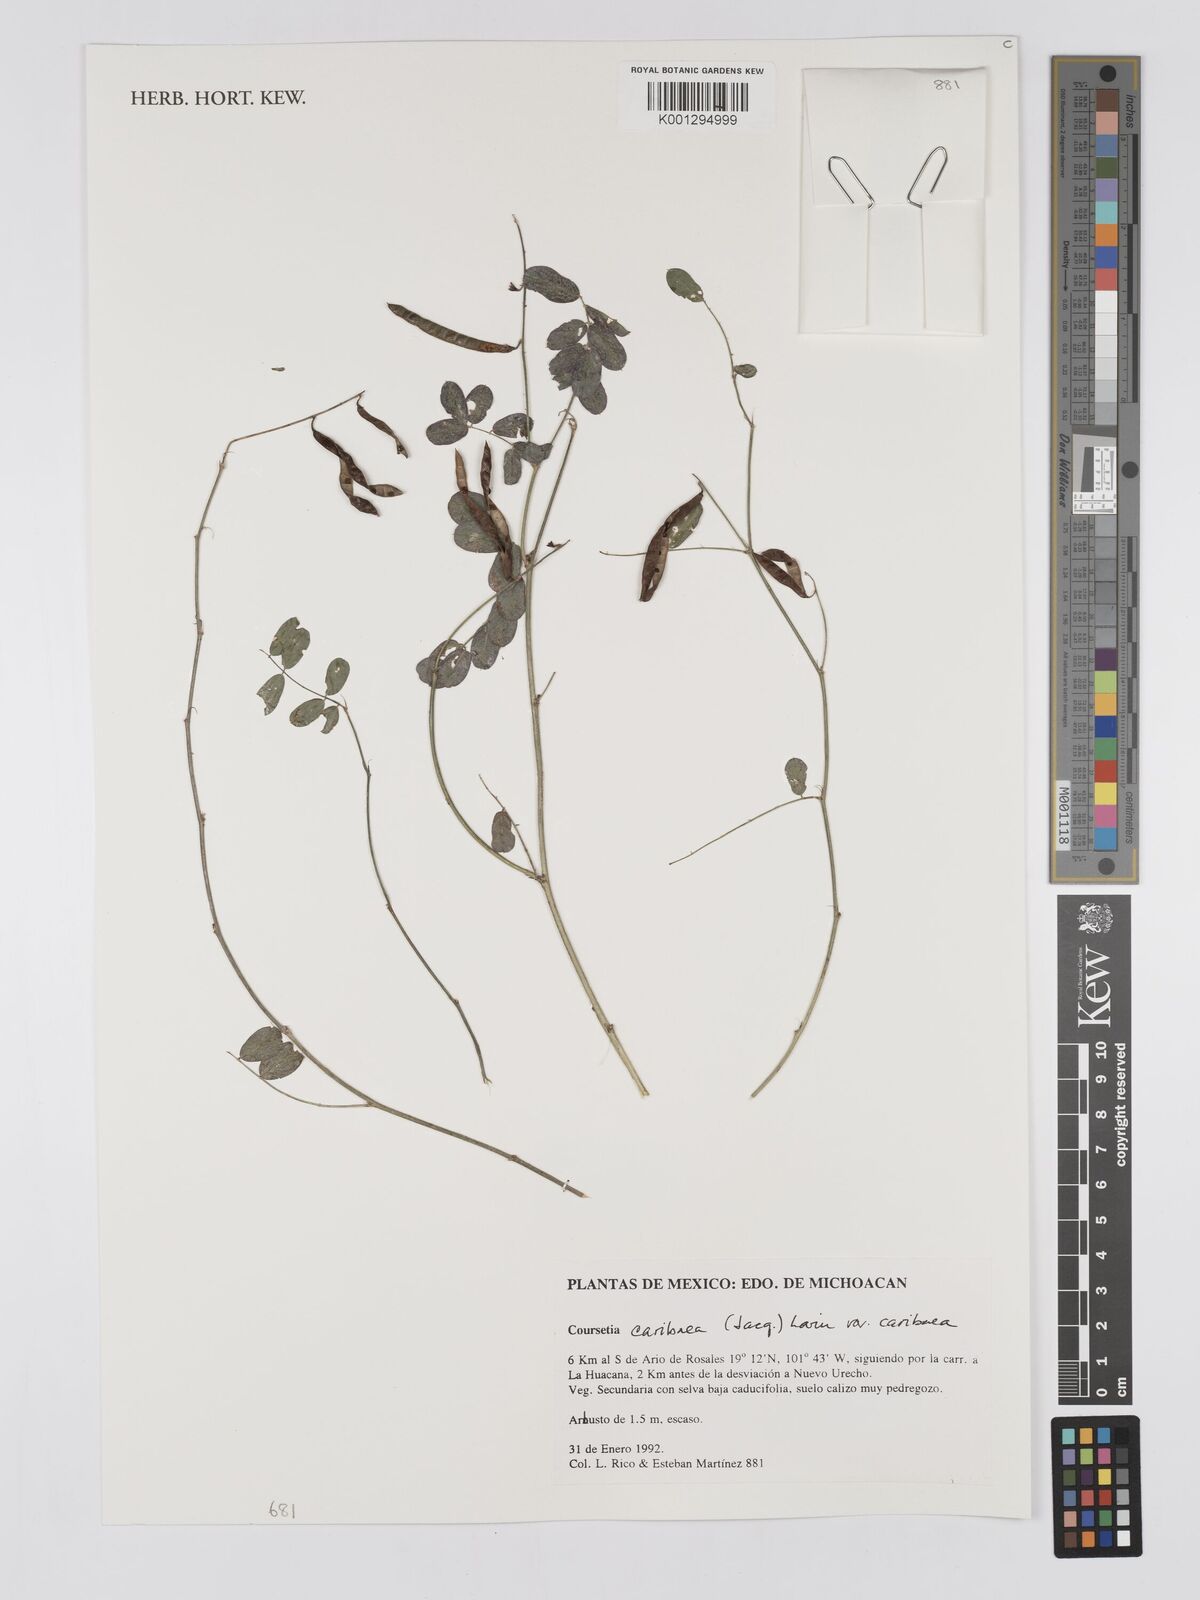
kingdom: Plantae
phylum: Tracheophyta
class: Magnoliopsida
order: Fabales
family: Fabaceae
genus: Vachellia
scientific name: Vachellia pennatula
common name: Fern-leaf acacia
